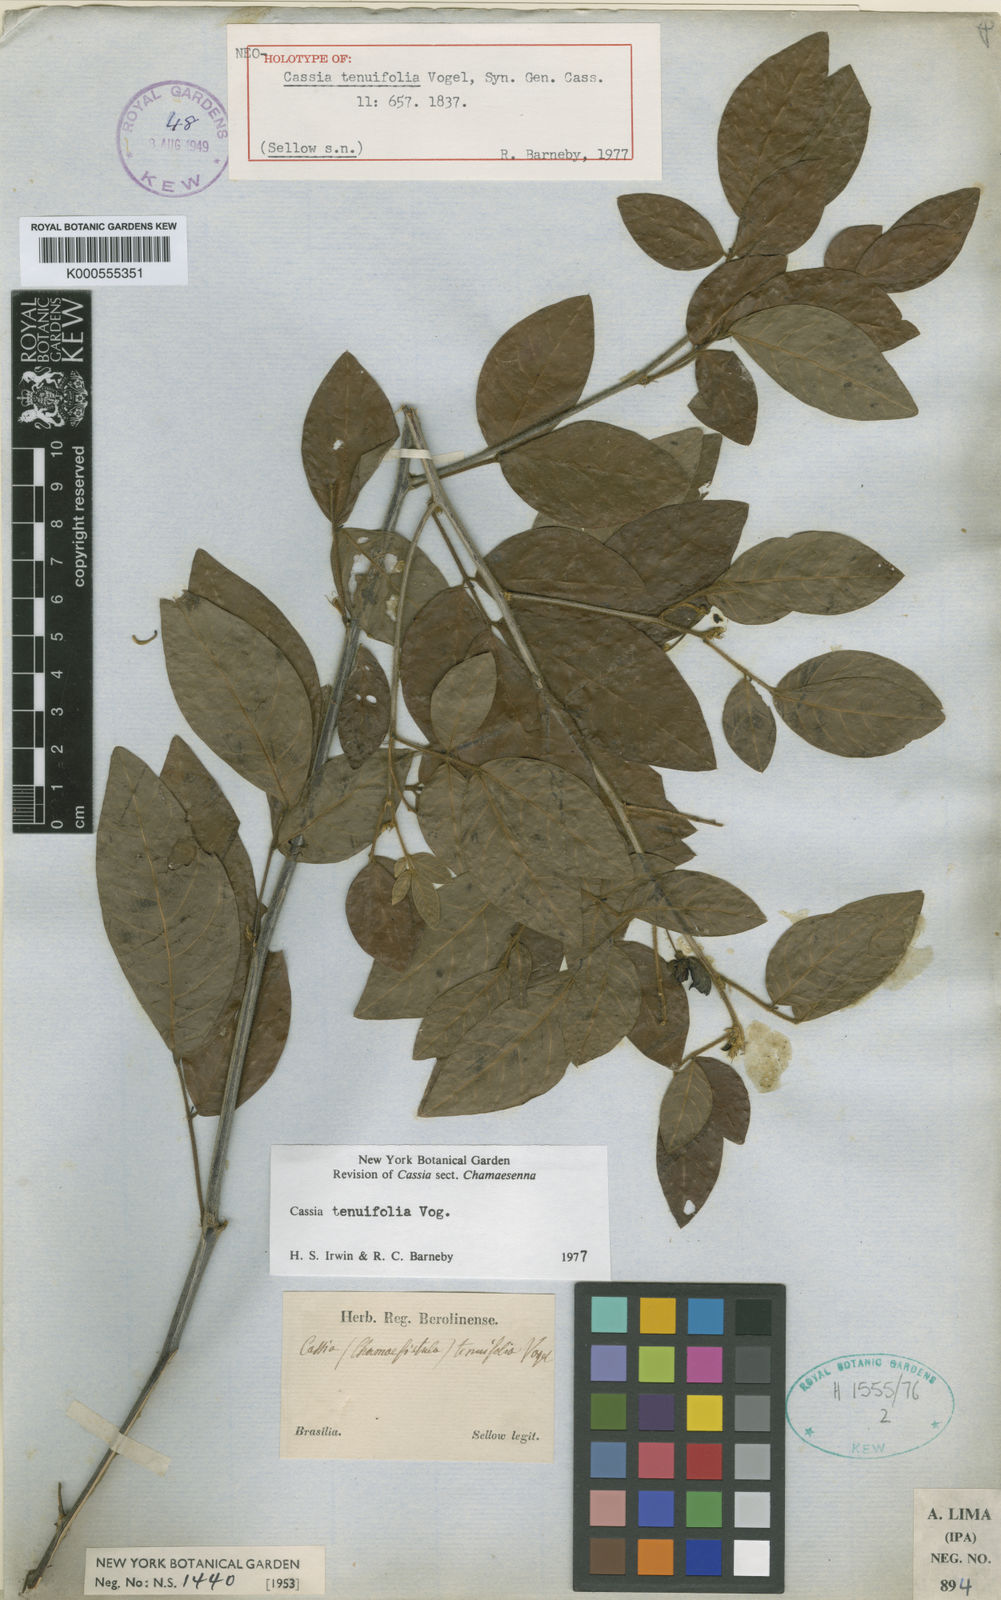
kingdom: Plantae
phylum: Tracheophyta
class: Magnoliopsida
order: Fabales
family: Fabaceae
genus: Senna
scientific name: Senna angulata
